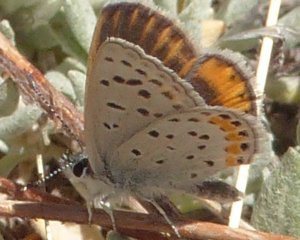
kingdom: Animalia
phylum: Arthropoda
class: Insecta
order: Lepidoptera
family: Lycaenidae
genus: Lycaena
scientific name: Lycaena neurona
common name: Veined Blue
